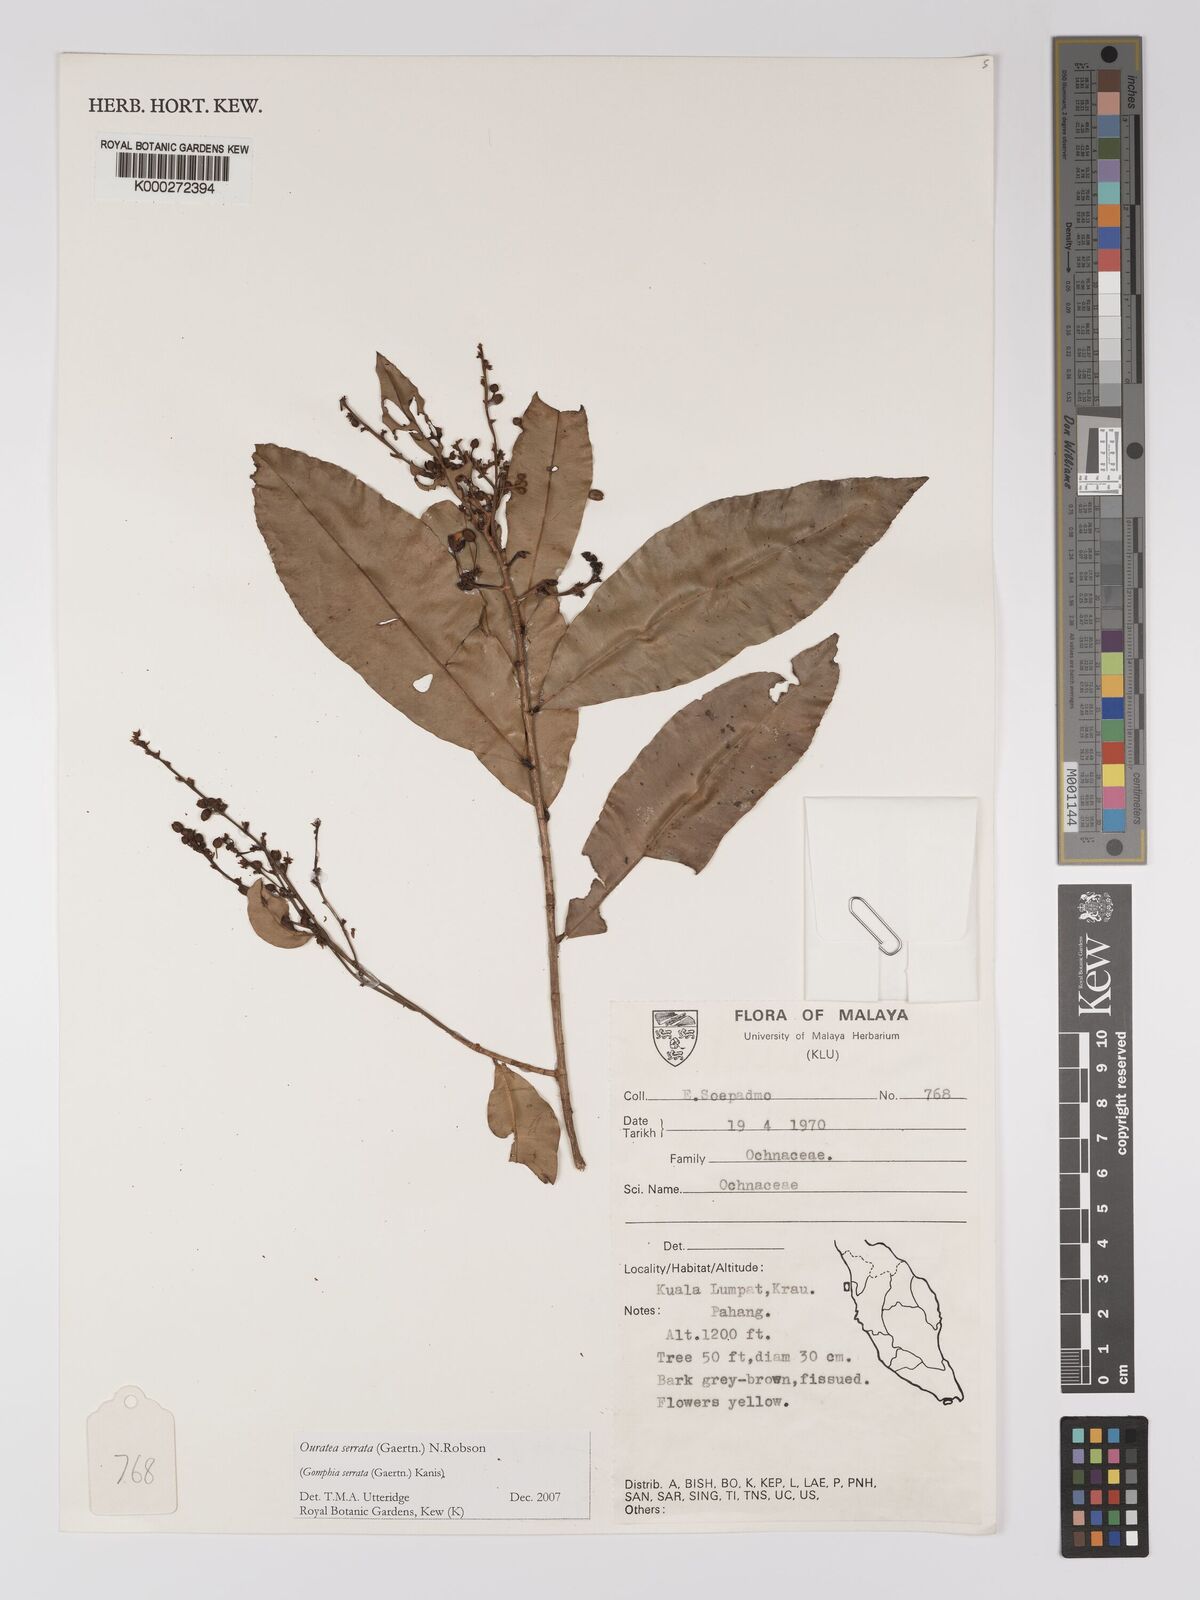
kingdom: Plantae
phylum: Tracheophyta
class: Magnoliopsida
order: Malpighiales
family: Ochnaceae
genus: Gomphia
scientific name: Gomphia serrata
